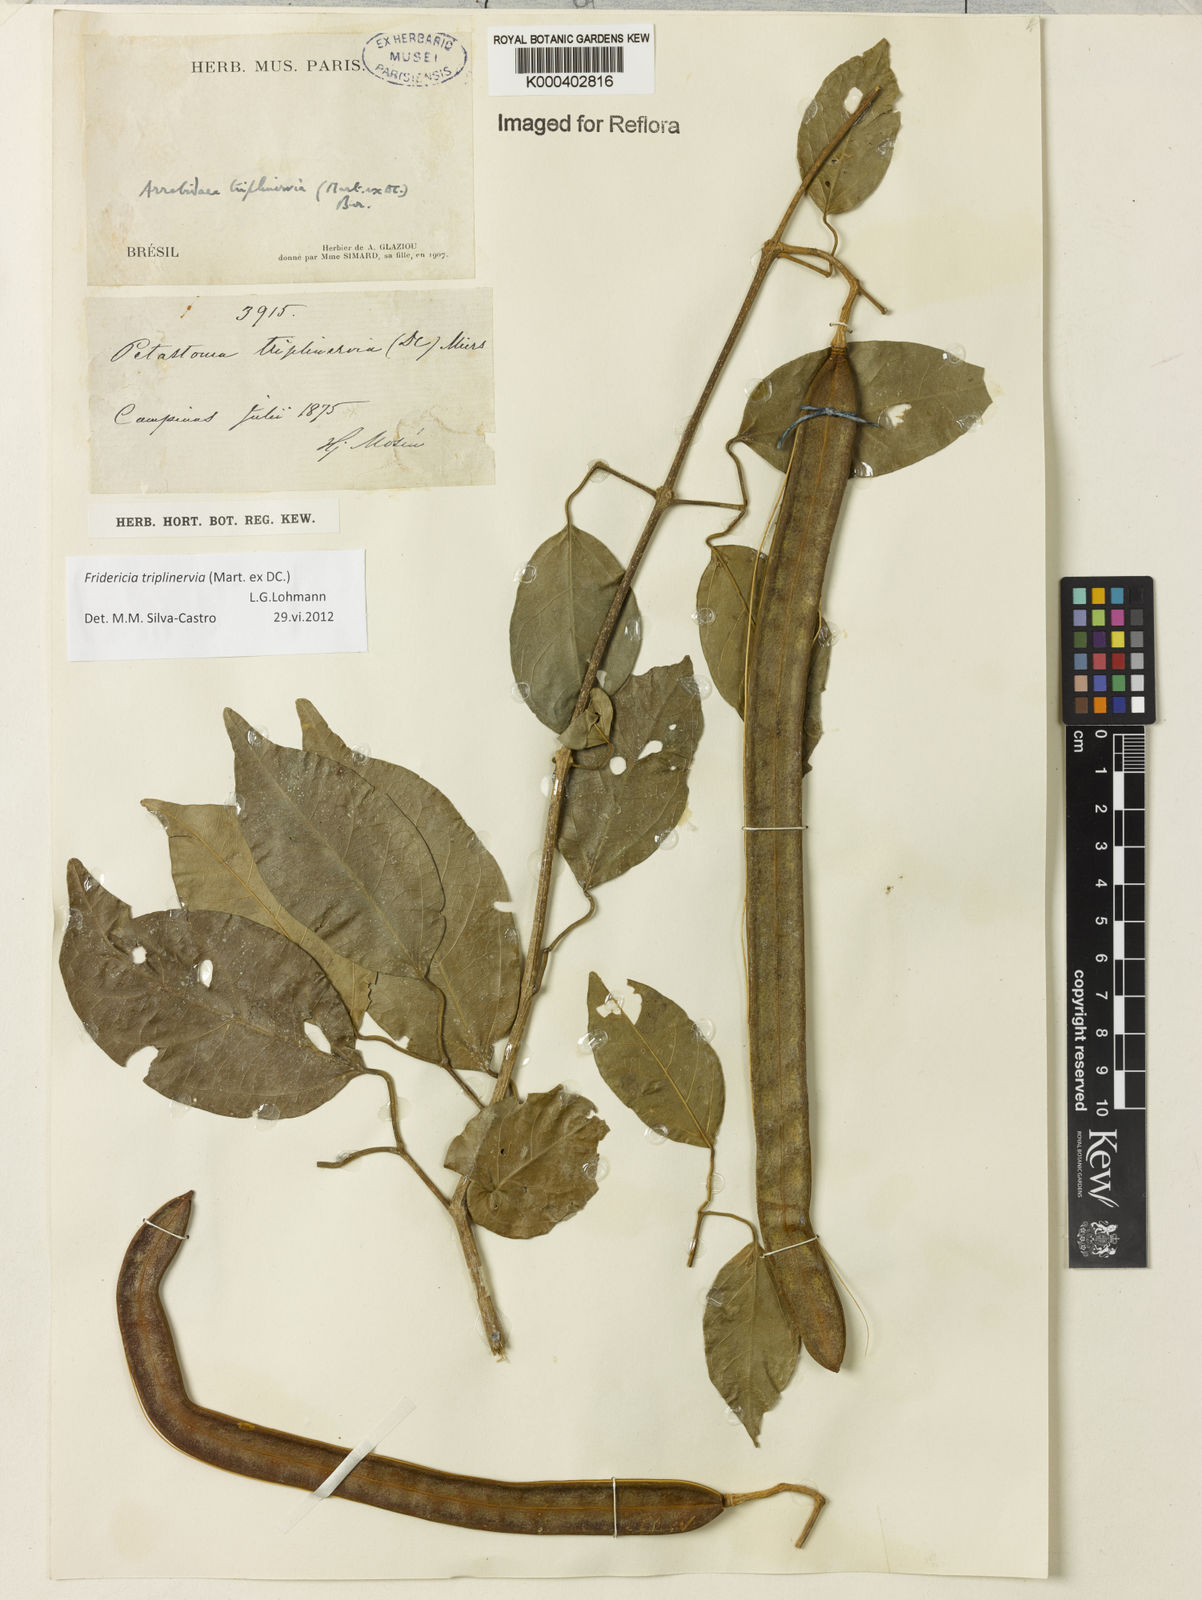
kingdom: Plantae
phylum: Tracheophyta
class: Magnoliopsida
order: Lamiales
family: Bignoniaceae
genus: Fridericia
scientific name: Fridericia triplinervia
